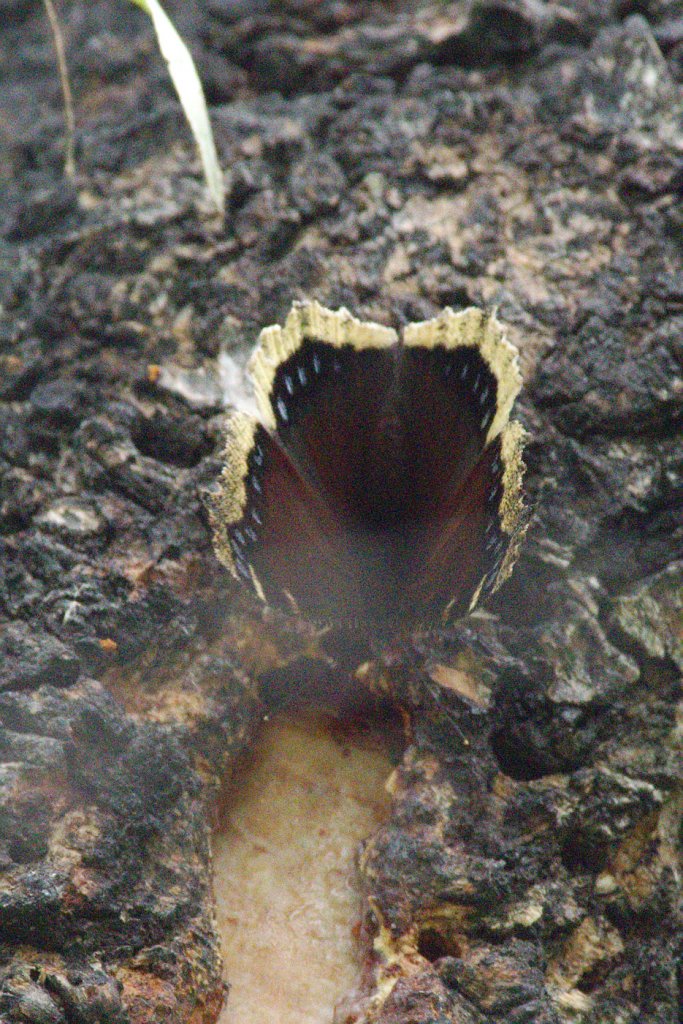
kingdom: Animalia
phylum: Arthropoda
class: Insecta
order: Lepidoptera
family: Nymphalidae
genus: Nymphalis
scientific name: Nymphalis antiopa
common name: Mourning Cloak
